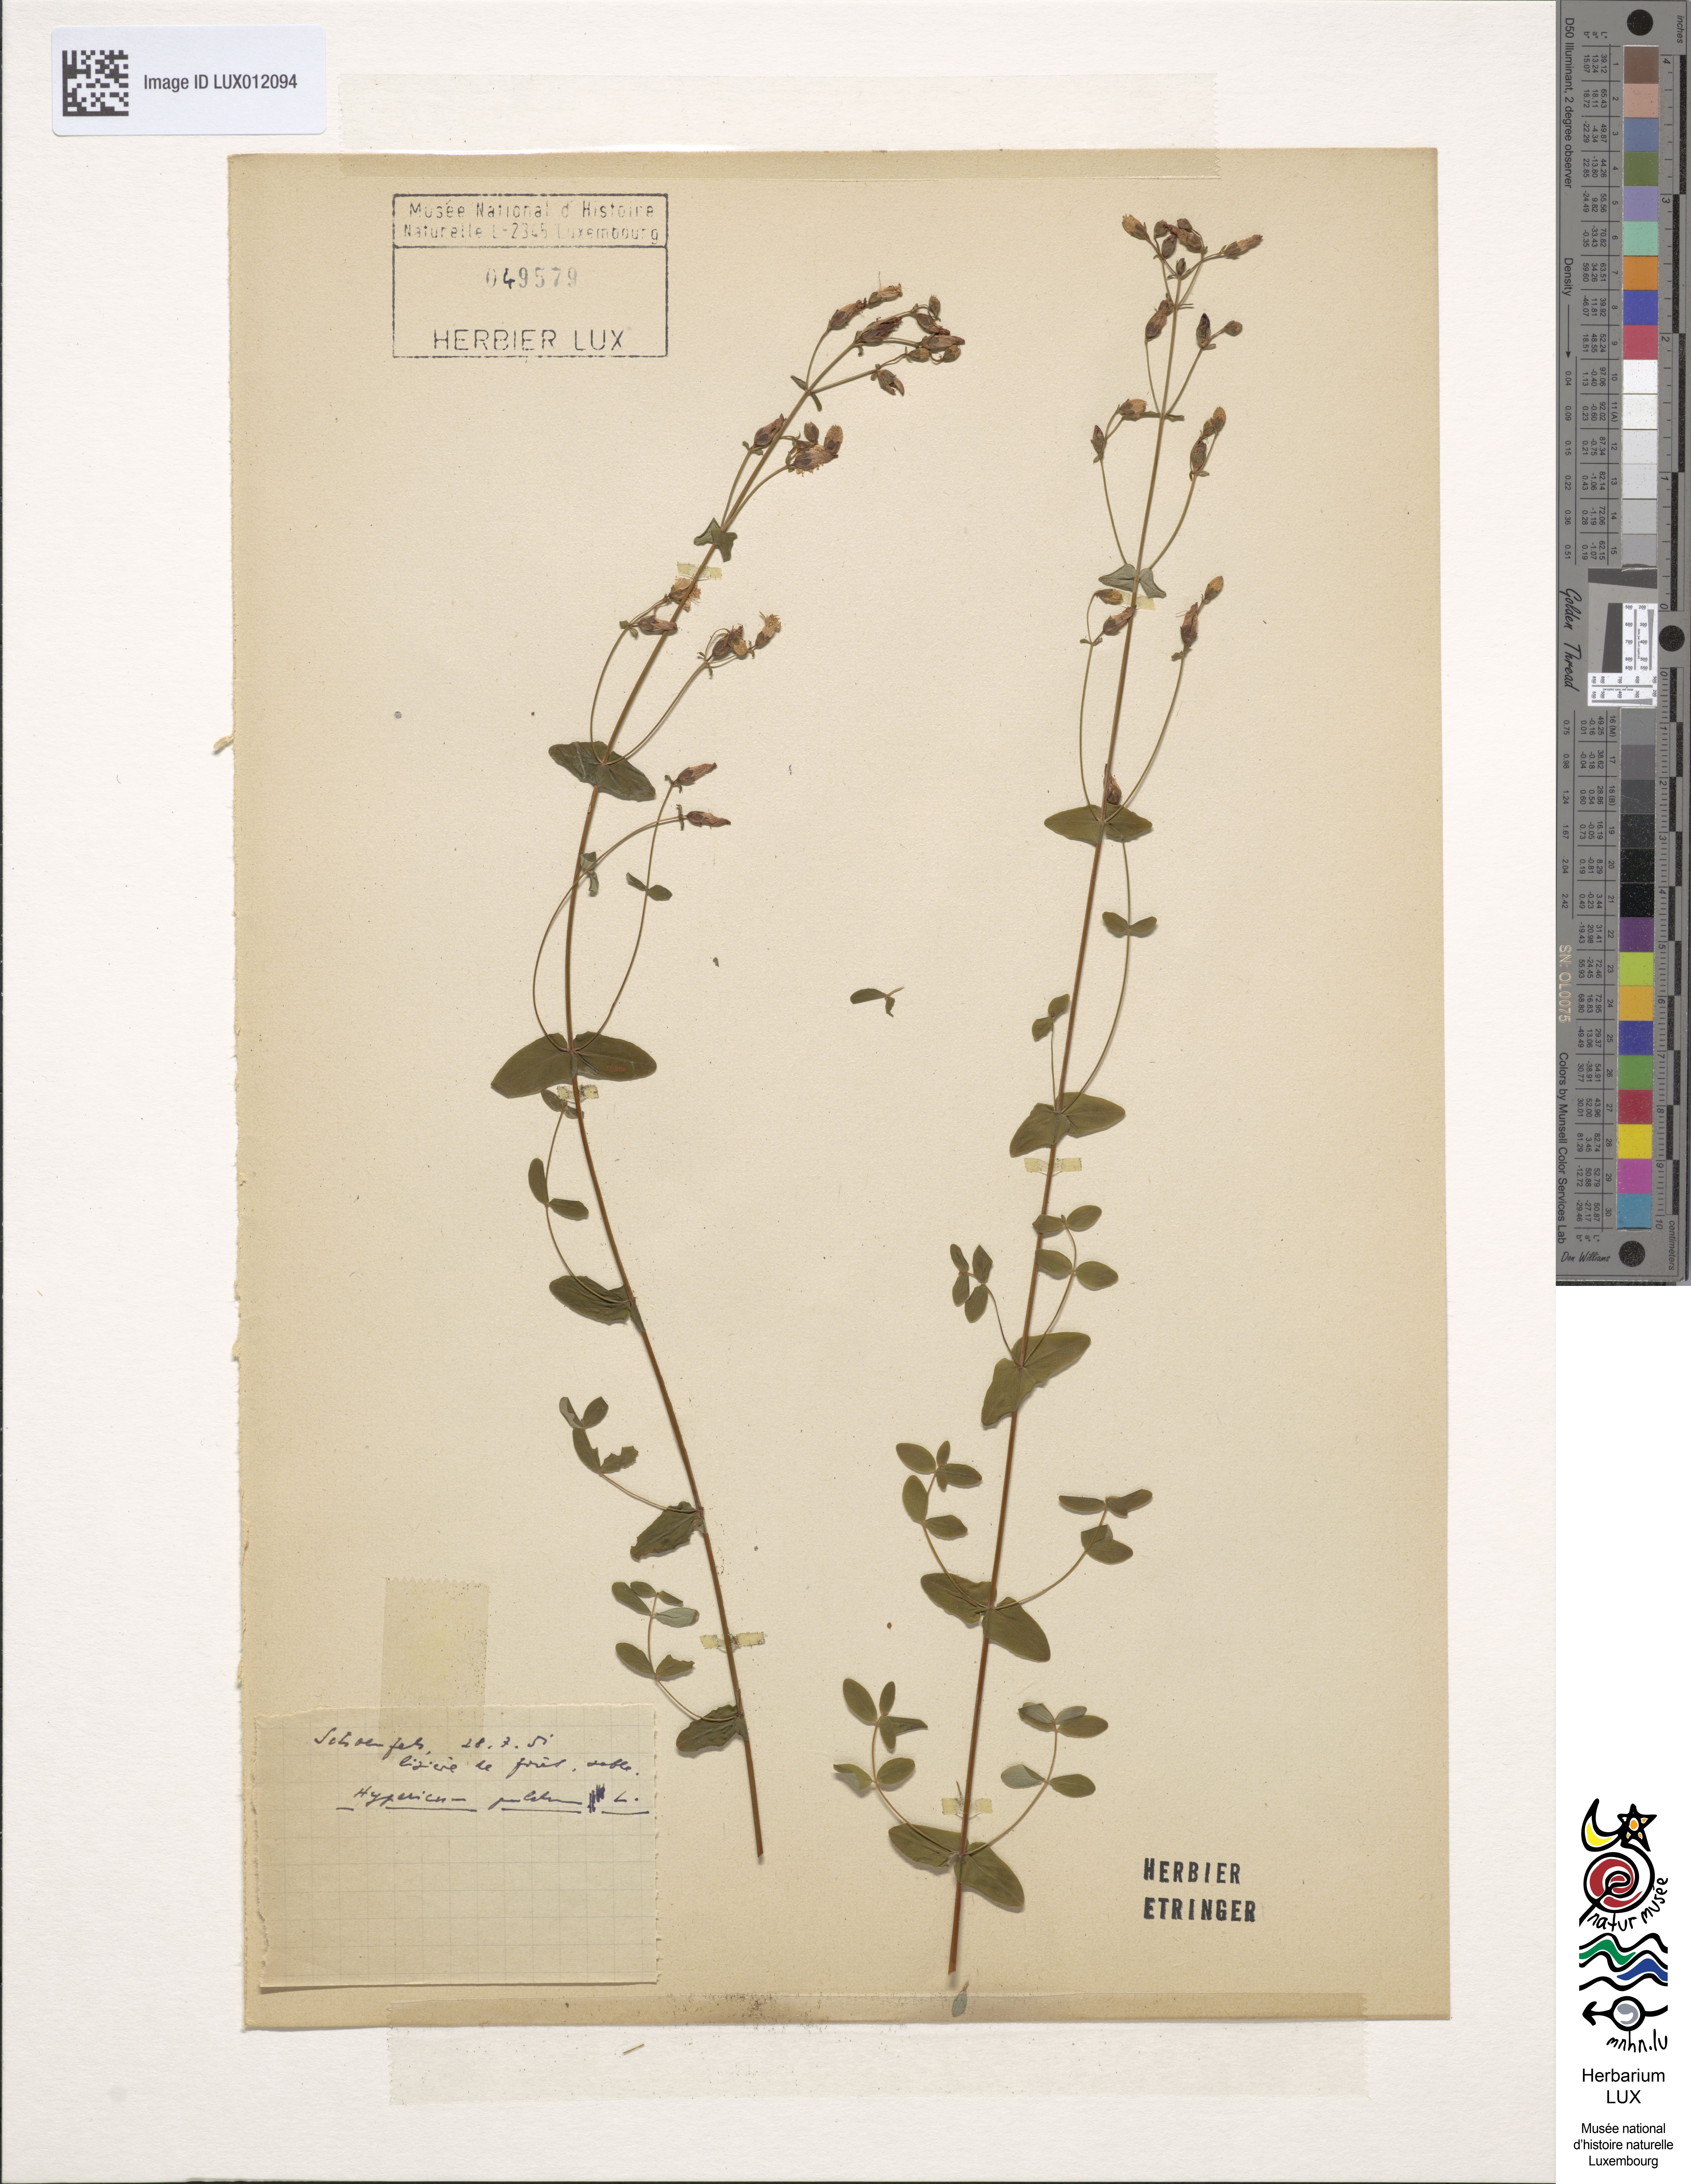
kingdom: Plantae
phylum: Tracheophyta
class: Magnoliopsida
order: Malpighiales
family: Hypericaceae
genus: Hypericum
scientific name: Hypericum pulchrum
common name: Slender st. john's-wort
